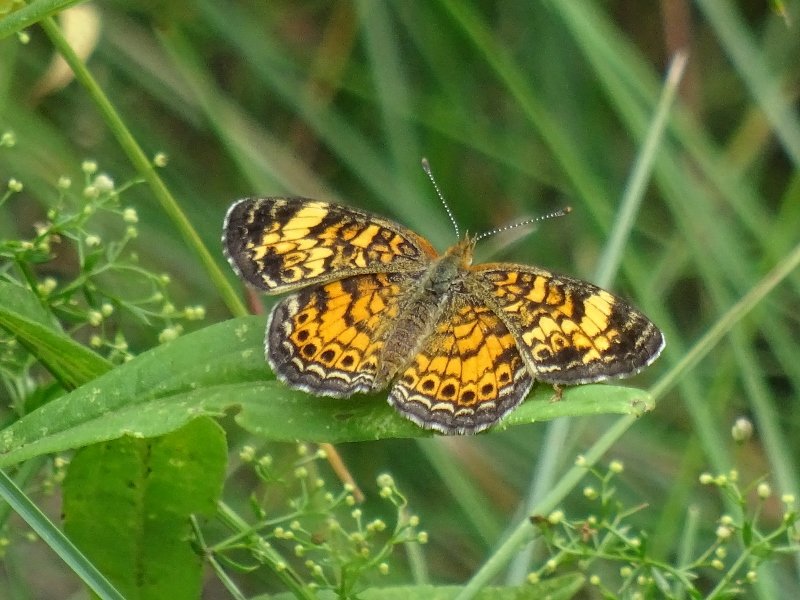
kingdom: Animalia
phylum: Arthropoda
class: Insecta
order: Lepidoptera
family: Nymphalidae
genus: Phyciodes
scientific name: Phyciodes tharos
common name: Pearl Crescent
